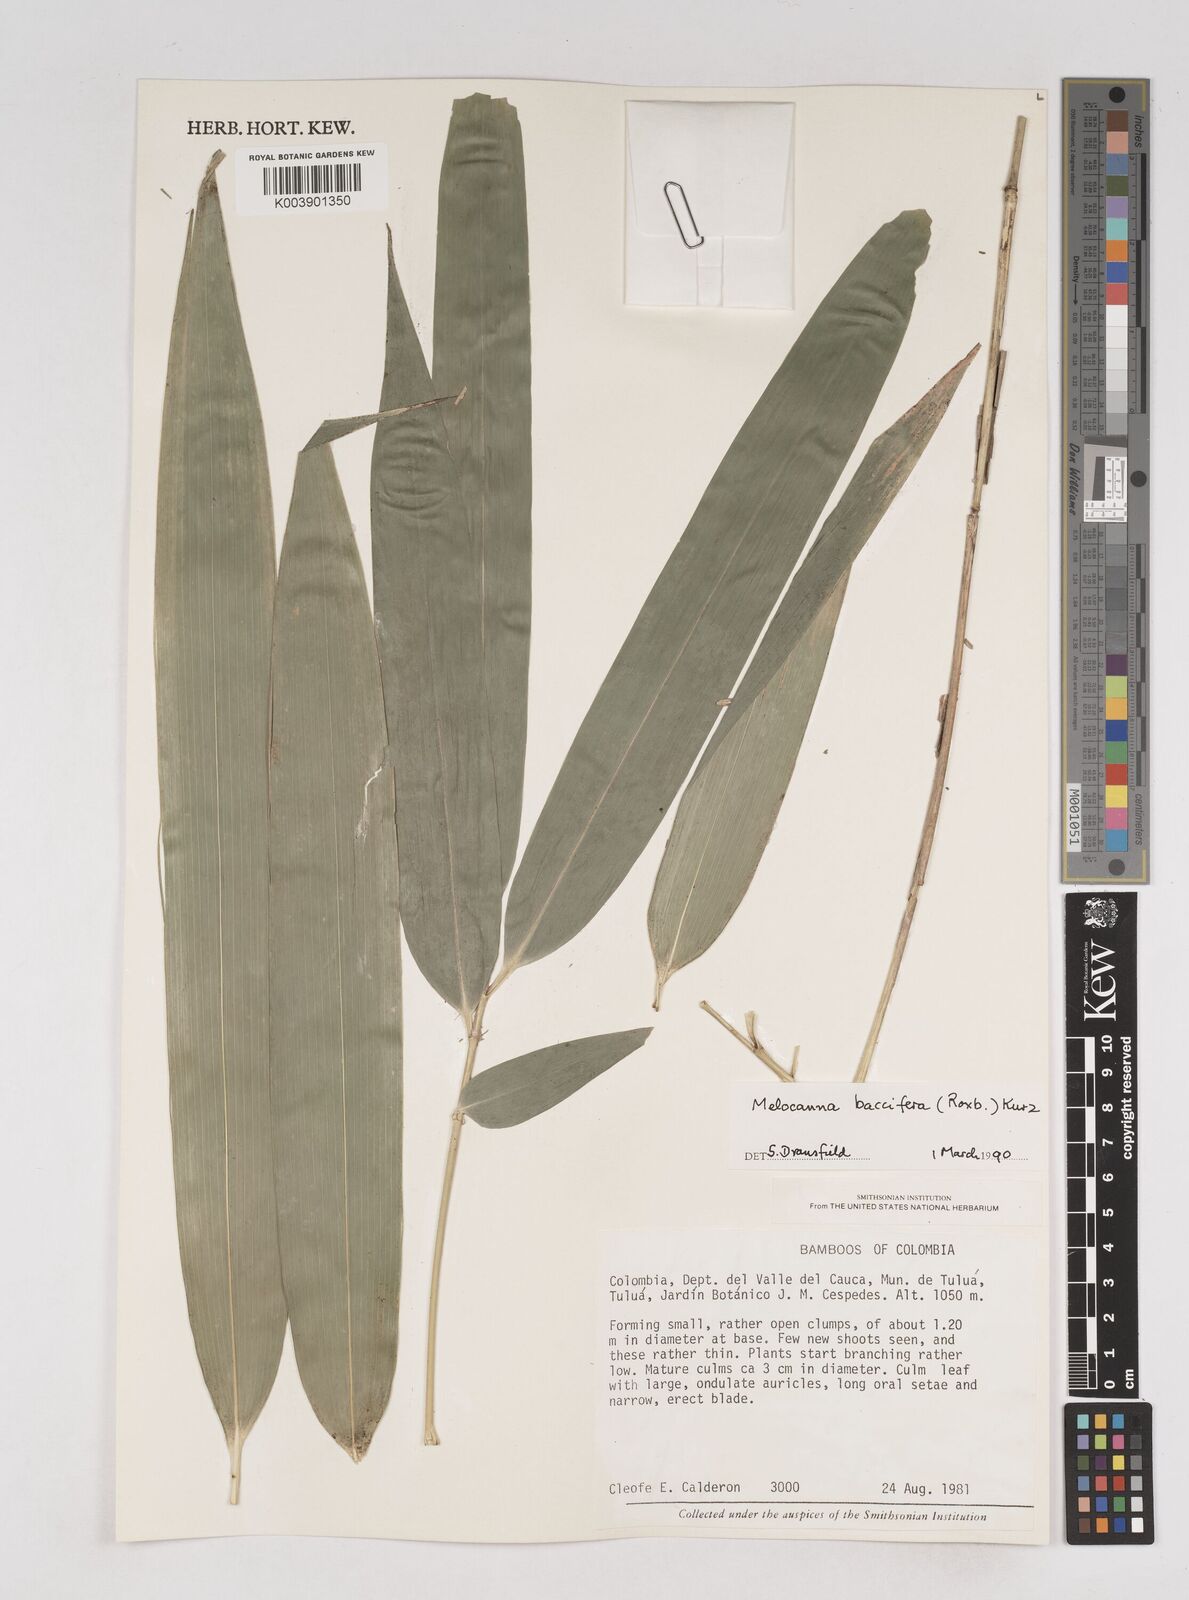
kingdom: Plantae
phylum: Tracheophyta
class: Liliopsida
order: Poales
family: Poaceae
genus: Melocanna
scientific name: Melocanna
